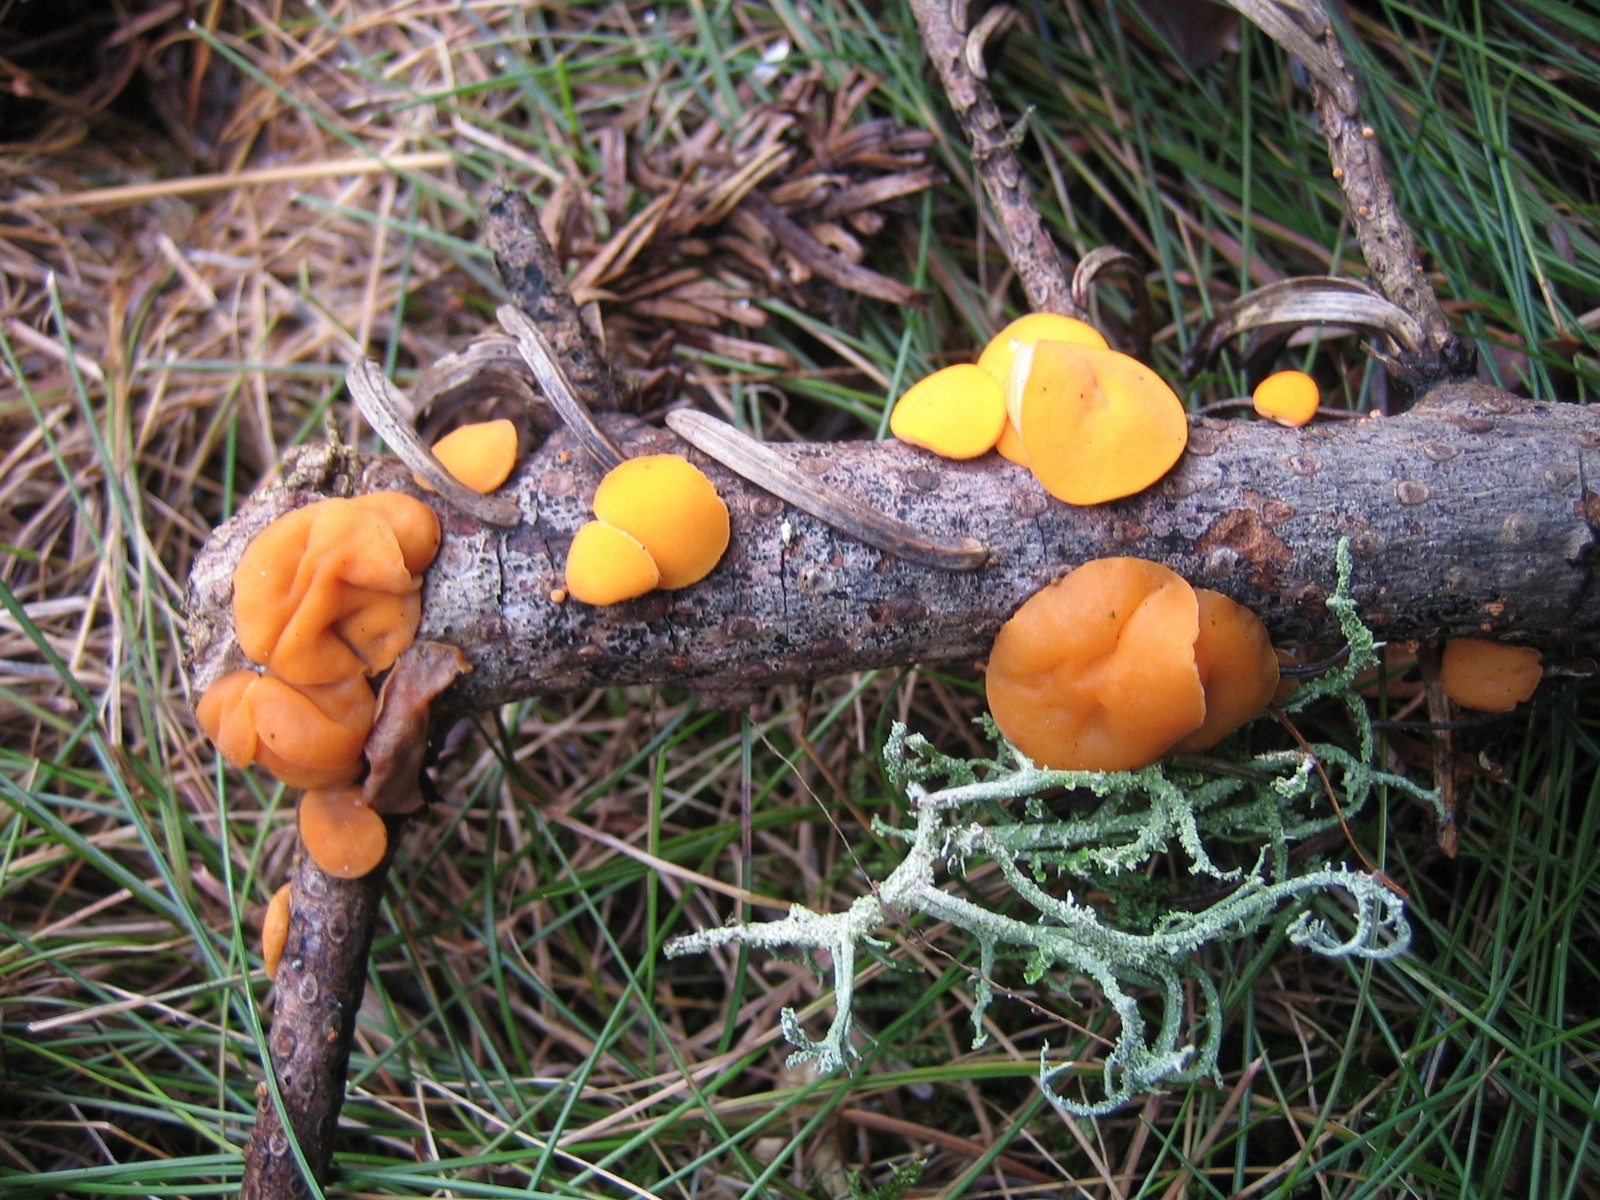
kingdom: Fungi
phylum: Ascomycota
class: Pezizomycetes
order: Pezizales
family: Sarcoscyphaceae
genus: Pithya
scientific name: Pithya vulgaris
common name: stor dukatbæger
